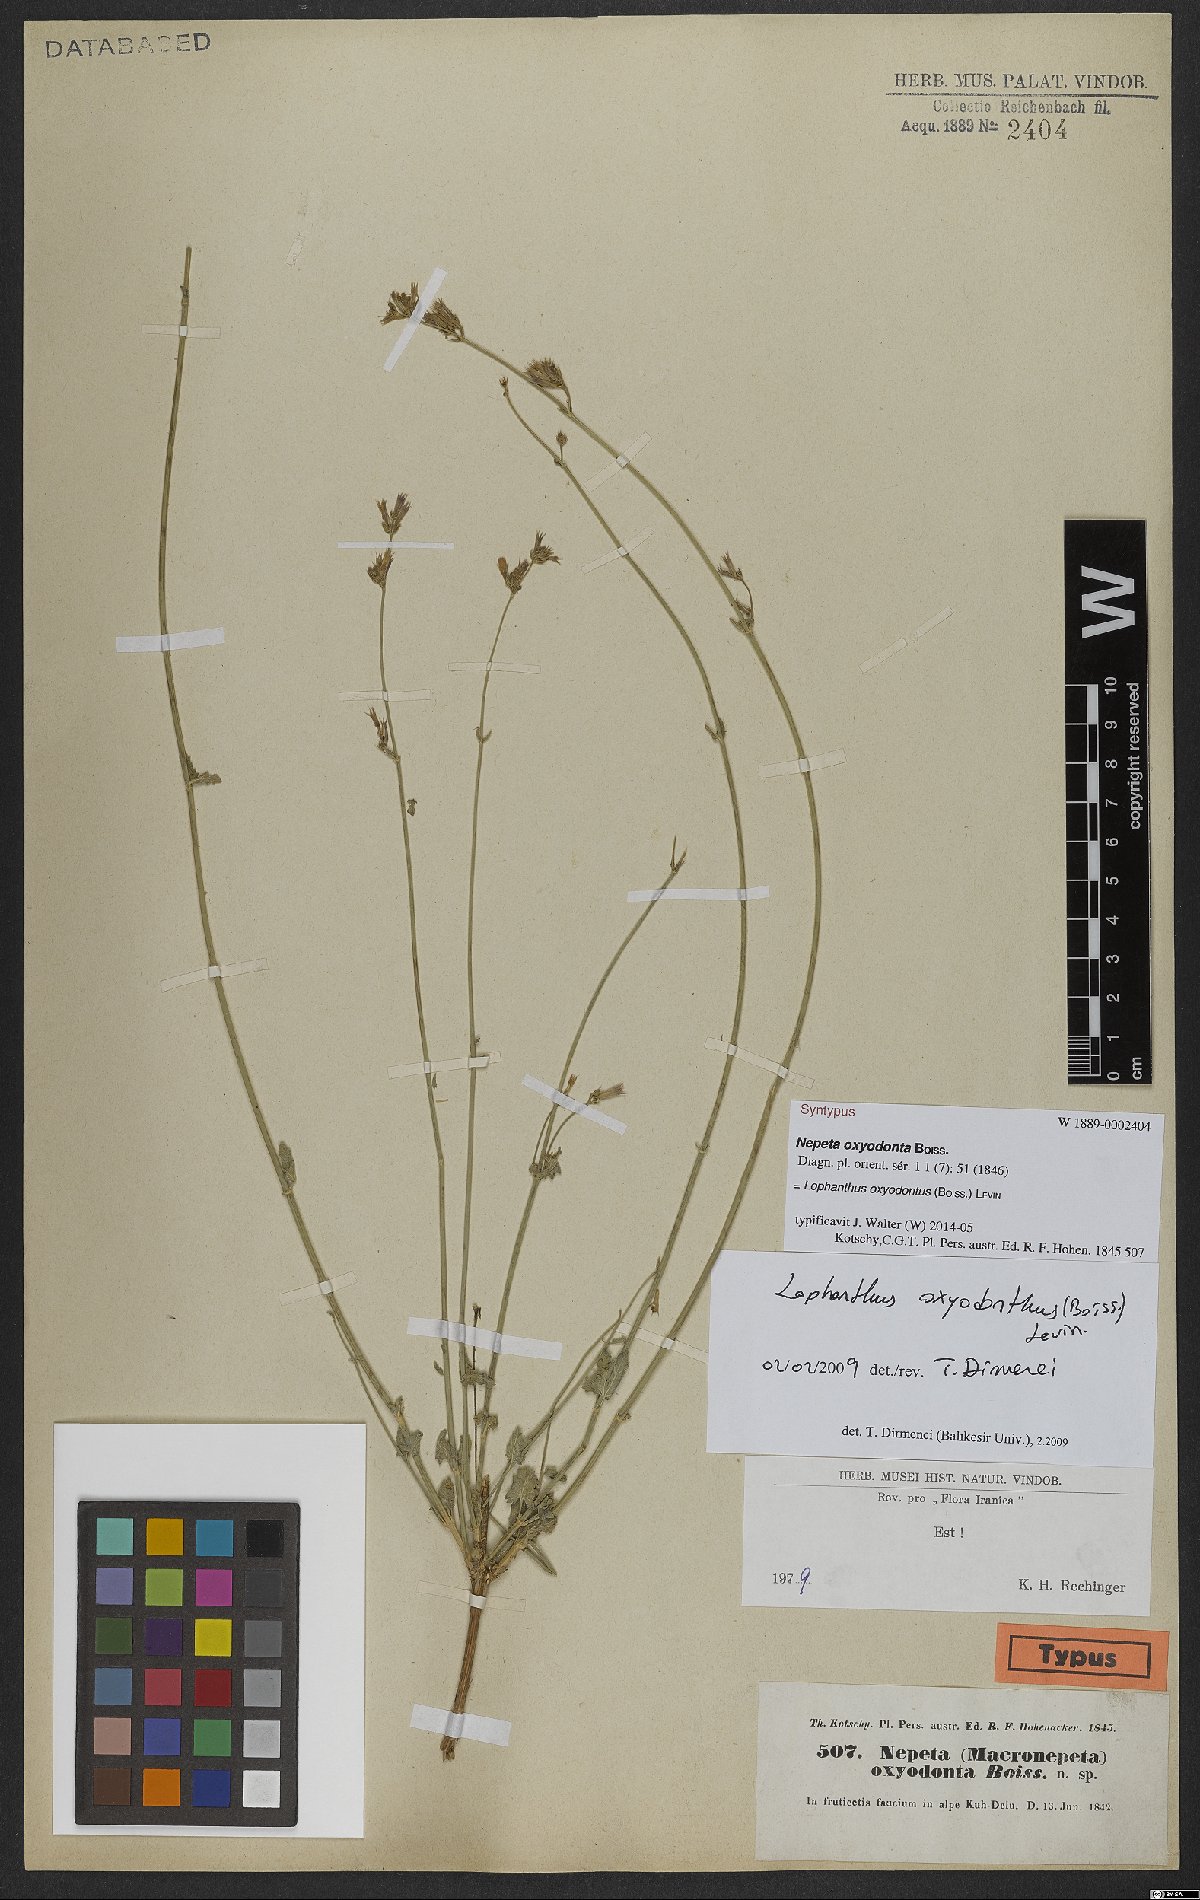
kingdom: Plantae
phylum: Tracheophyta
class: Magnoliopsida
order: Lamiales
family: Lamiaceae
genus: Nepeta
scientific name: Nepeta oxyodonta
